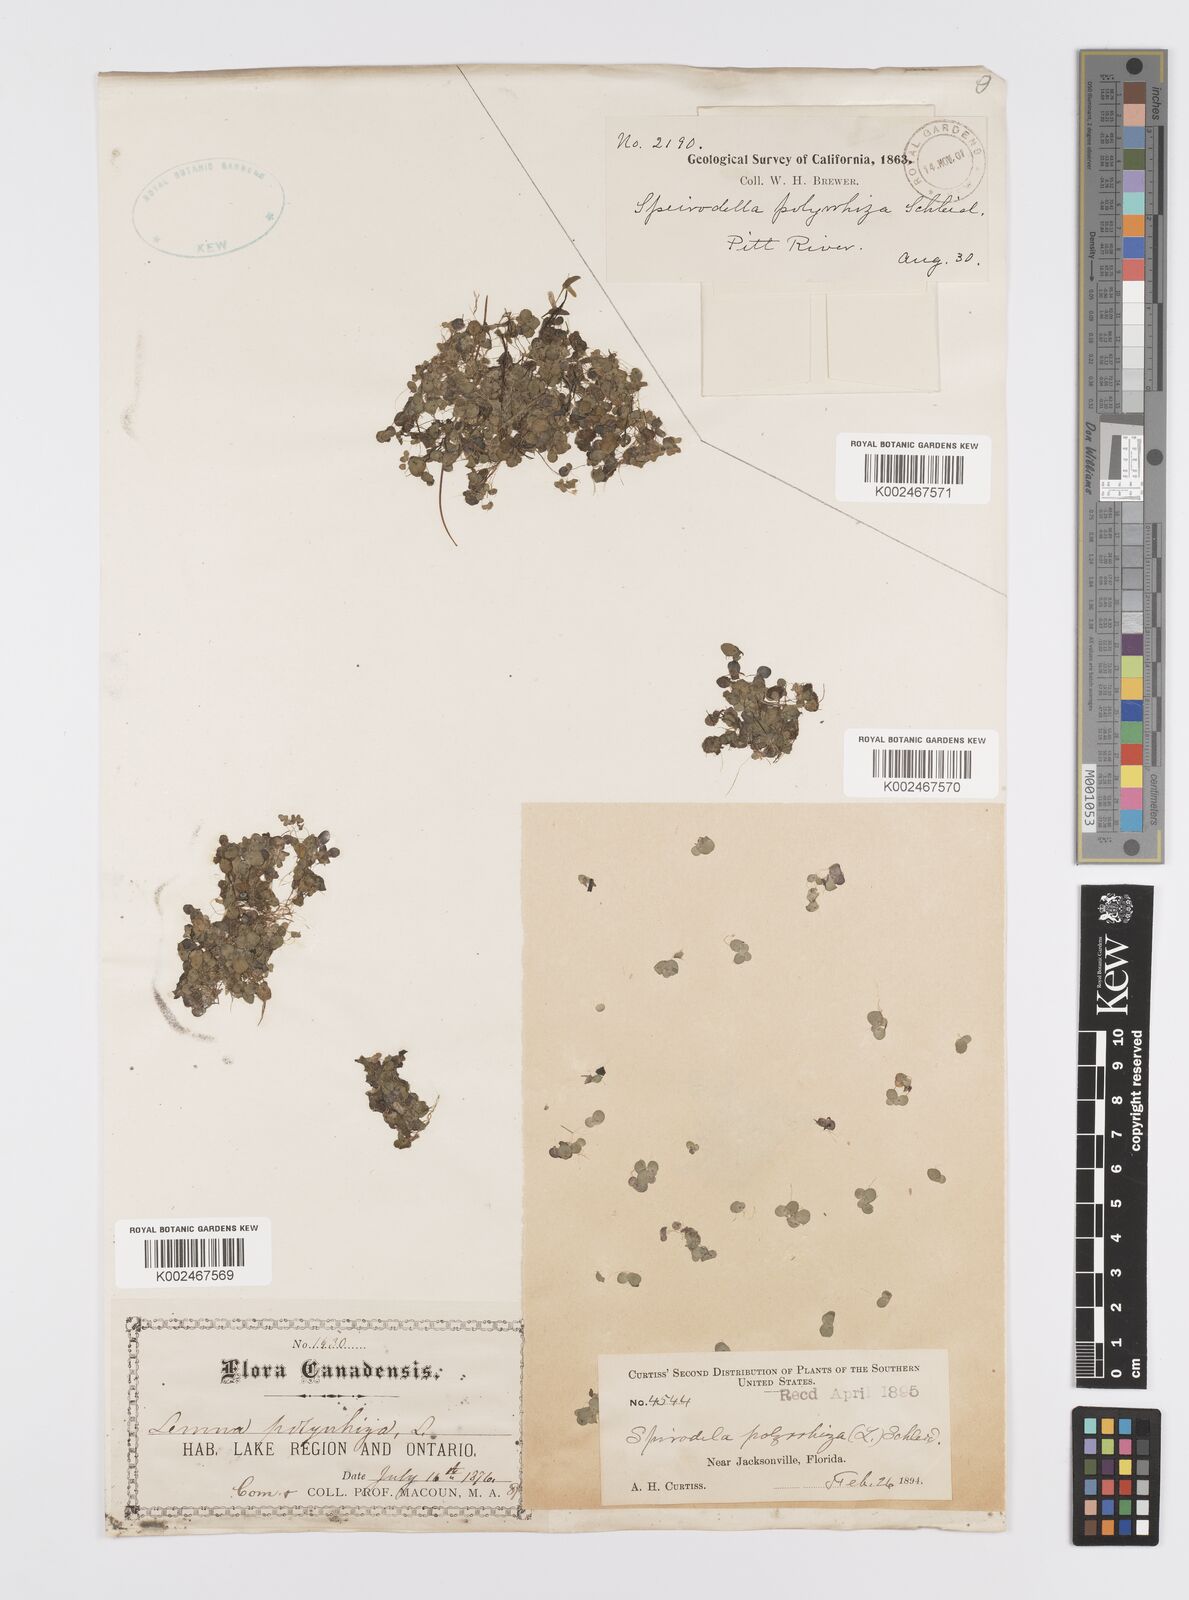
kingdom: Plantae
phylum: Tracheophyta
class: Liliopsida
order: Alismatales
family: Araceae
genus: Spirodela
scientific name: Spirodela polyrhiza
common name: Great duckweed
